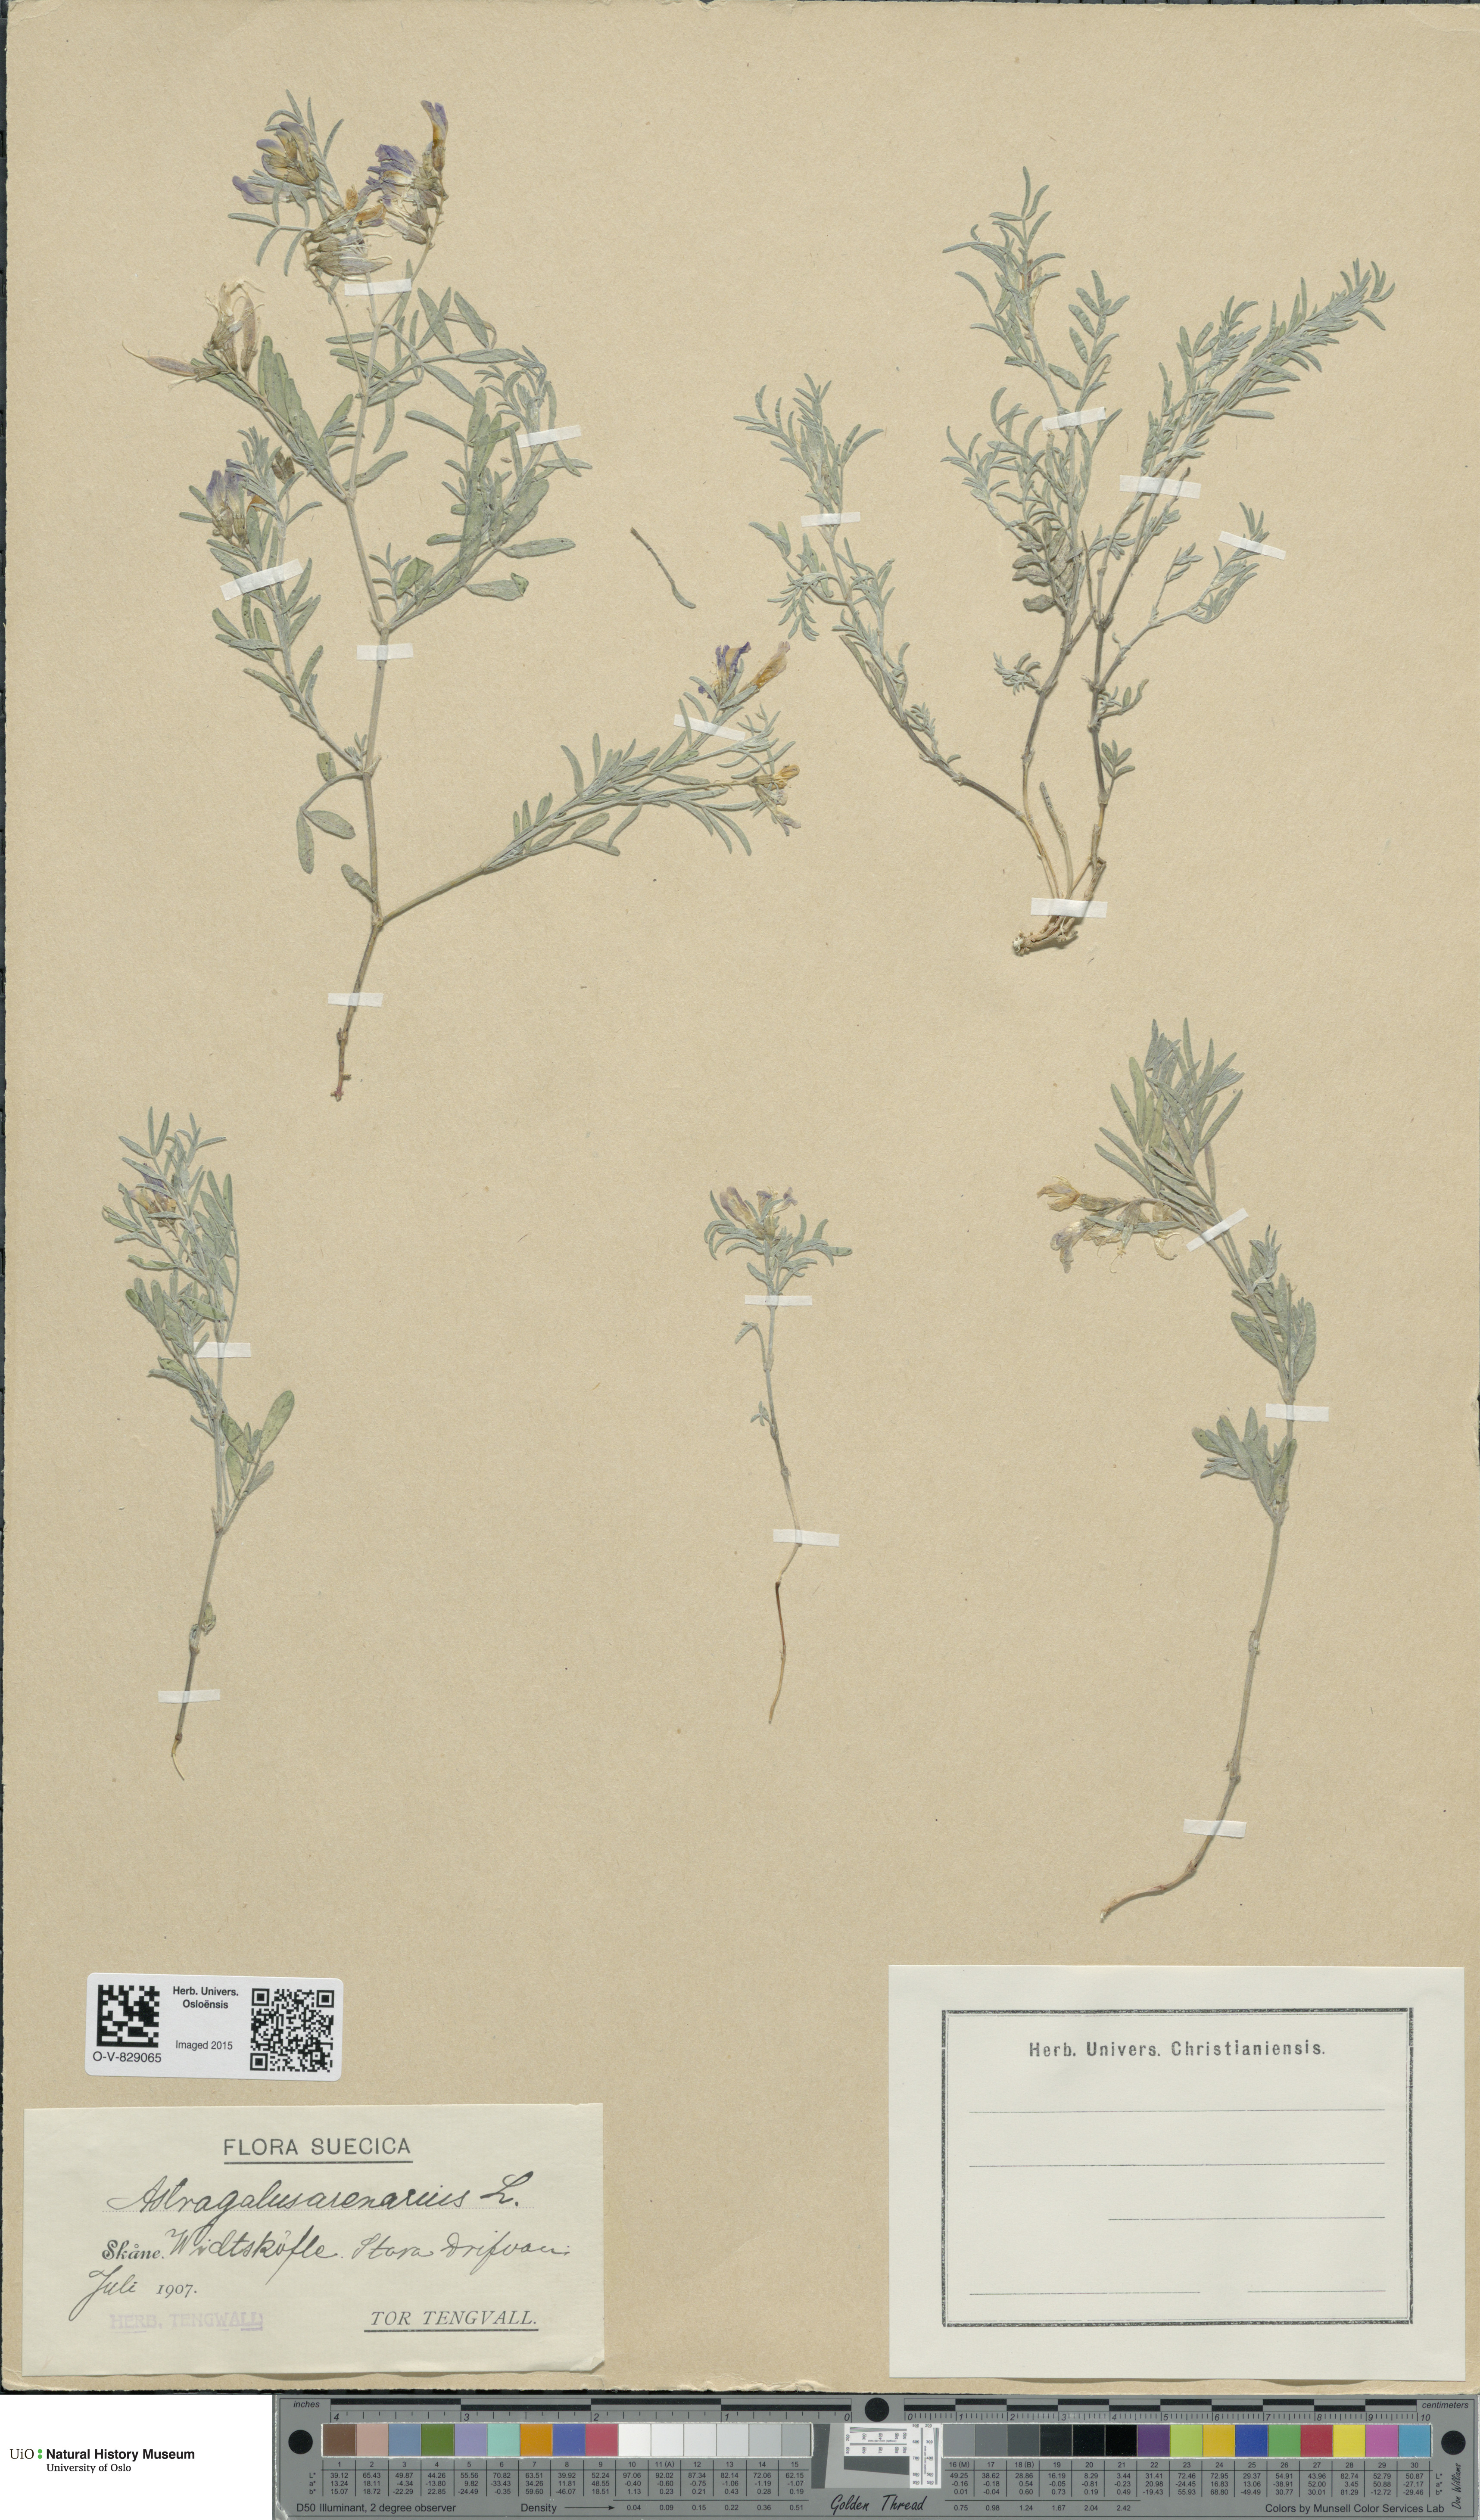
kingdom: Plantae
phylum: Tracheophyta
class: Magnoliopsida
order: Fabales
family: Fabaceae
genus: Astragalus
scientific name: Astragalus arenarius
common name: Arenarious milk-vetch
